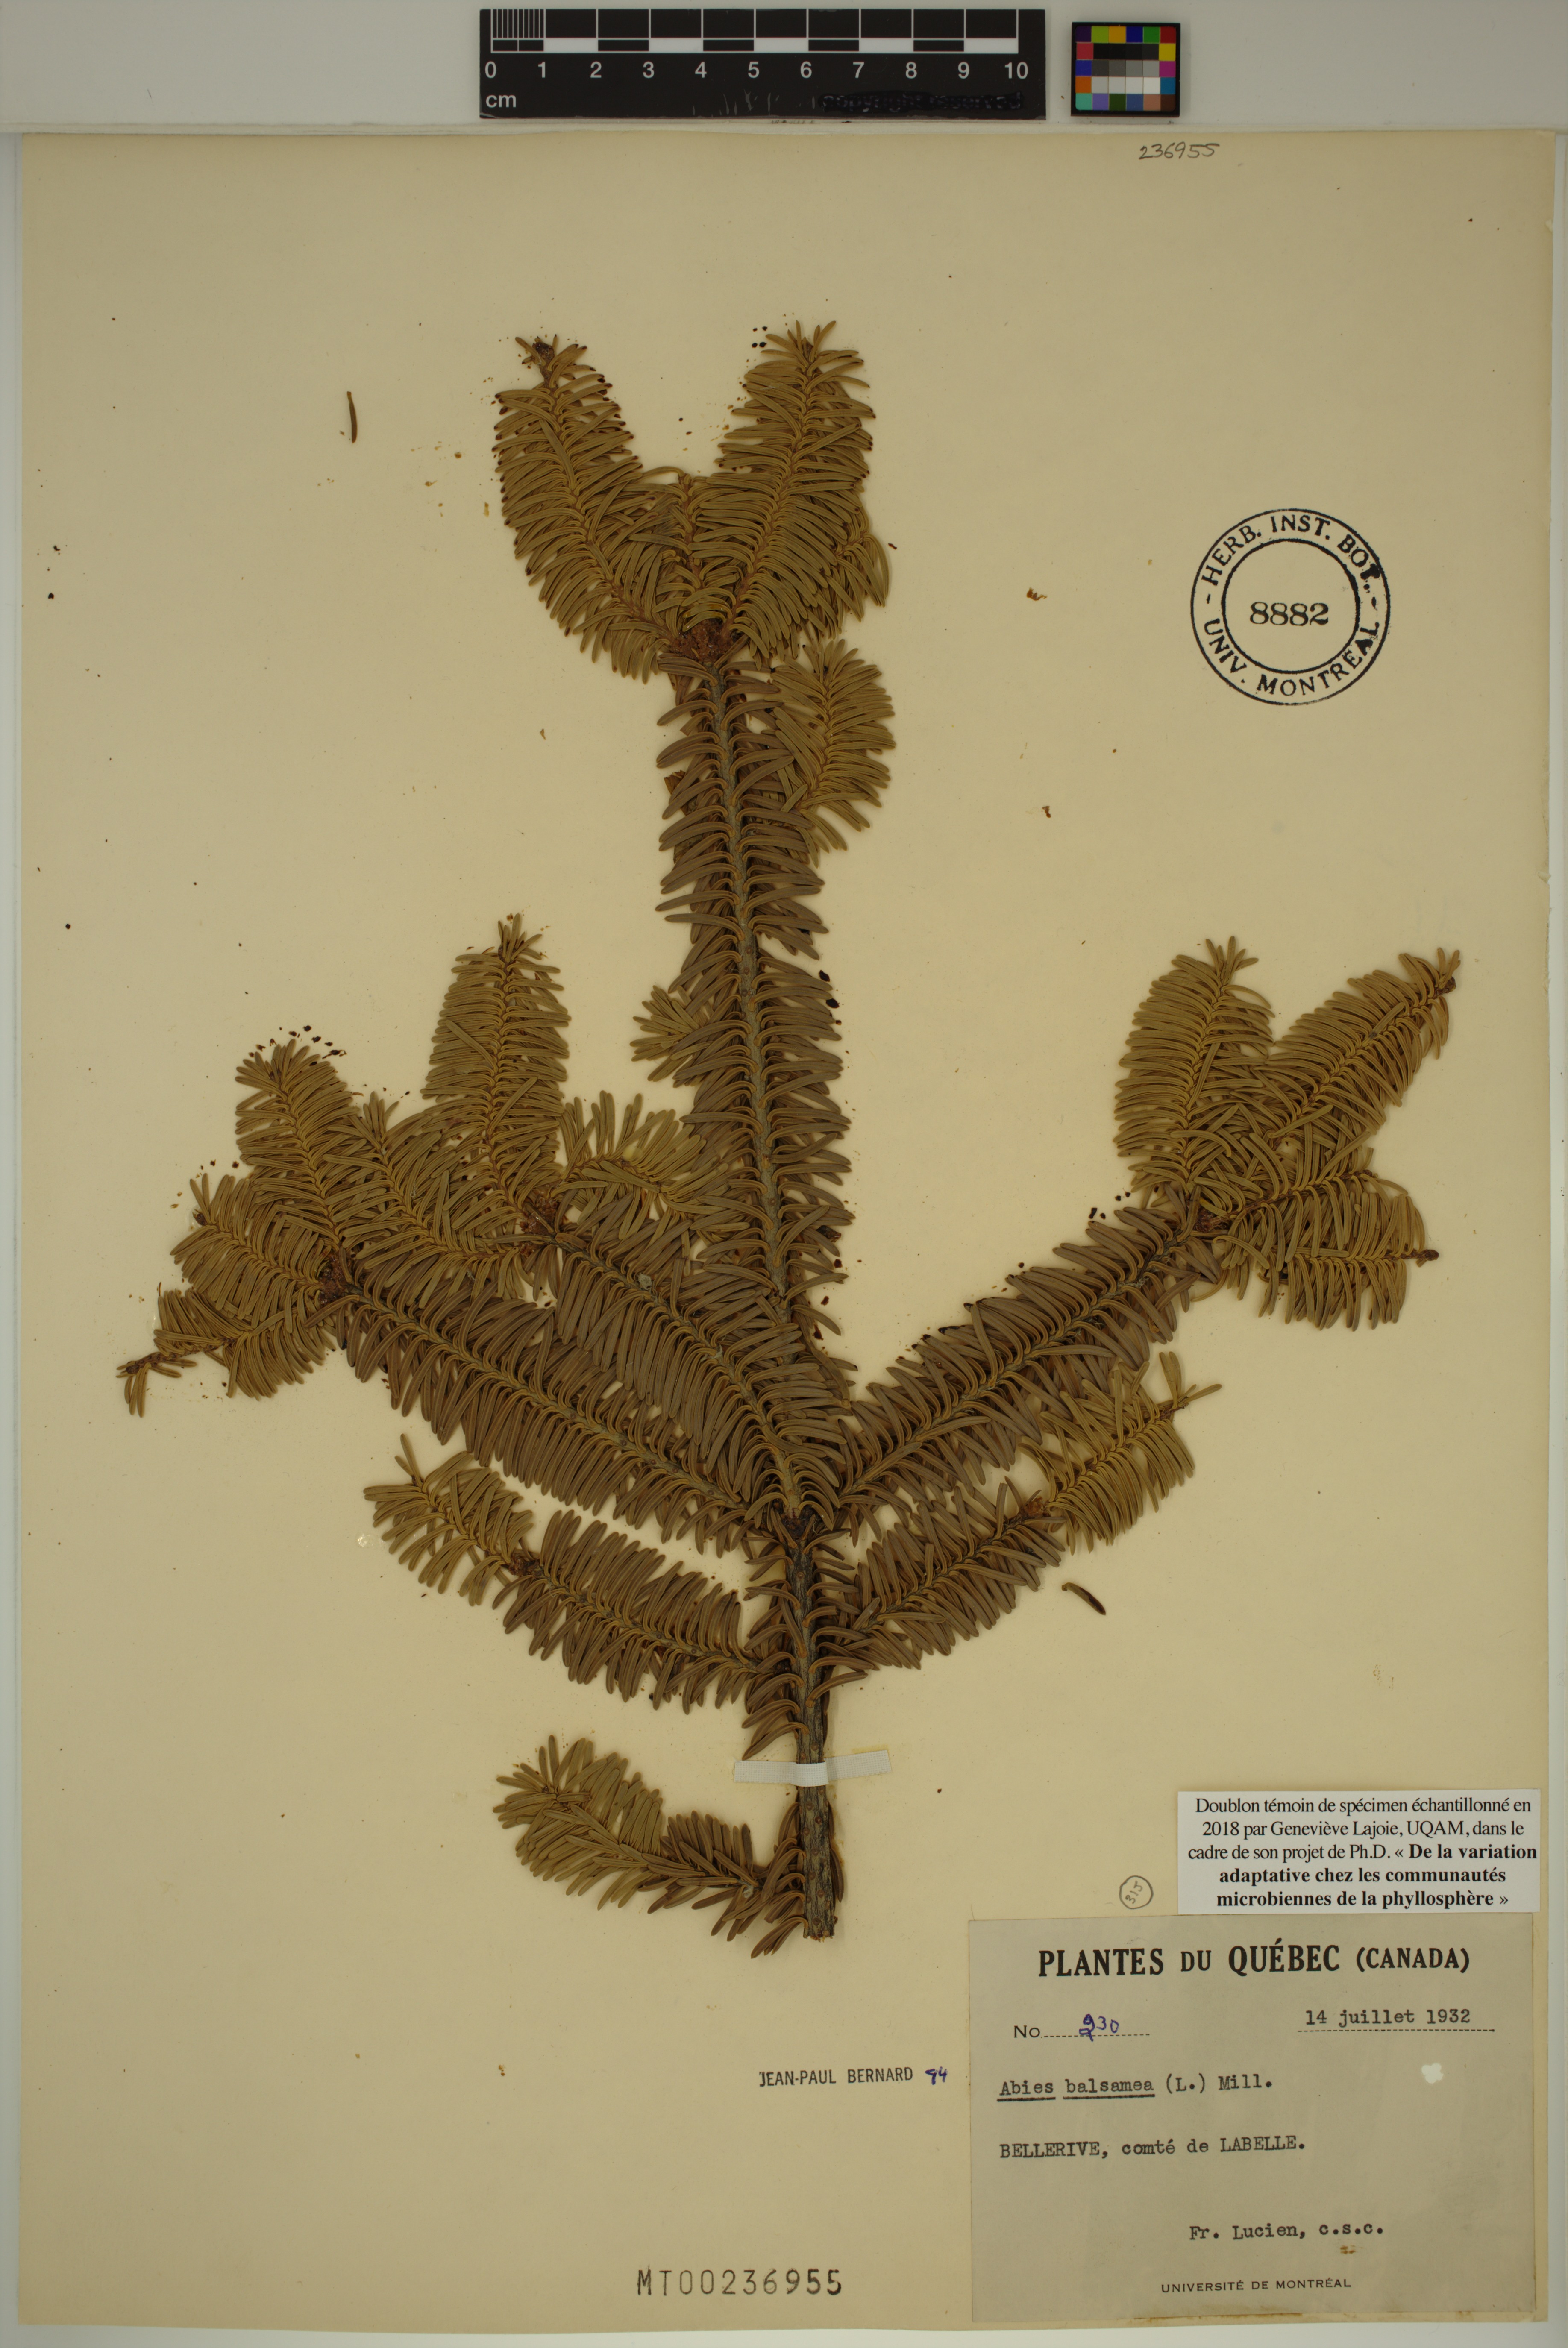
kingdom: Plantae
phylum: Tracheophyta
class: Pinopsida
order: Pinales
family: Pinaceae
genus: Abies
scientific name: Abies balsamea
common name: Balsam fir
